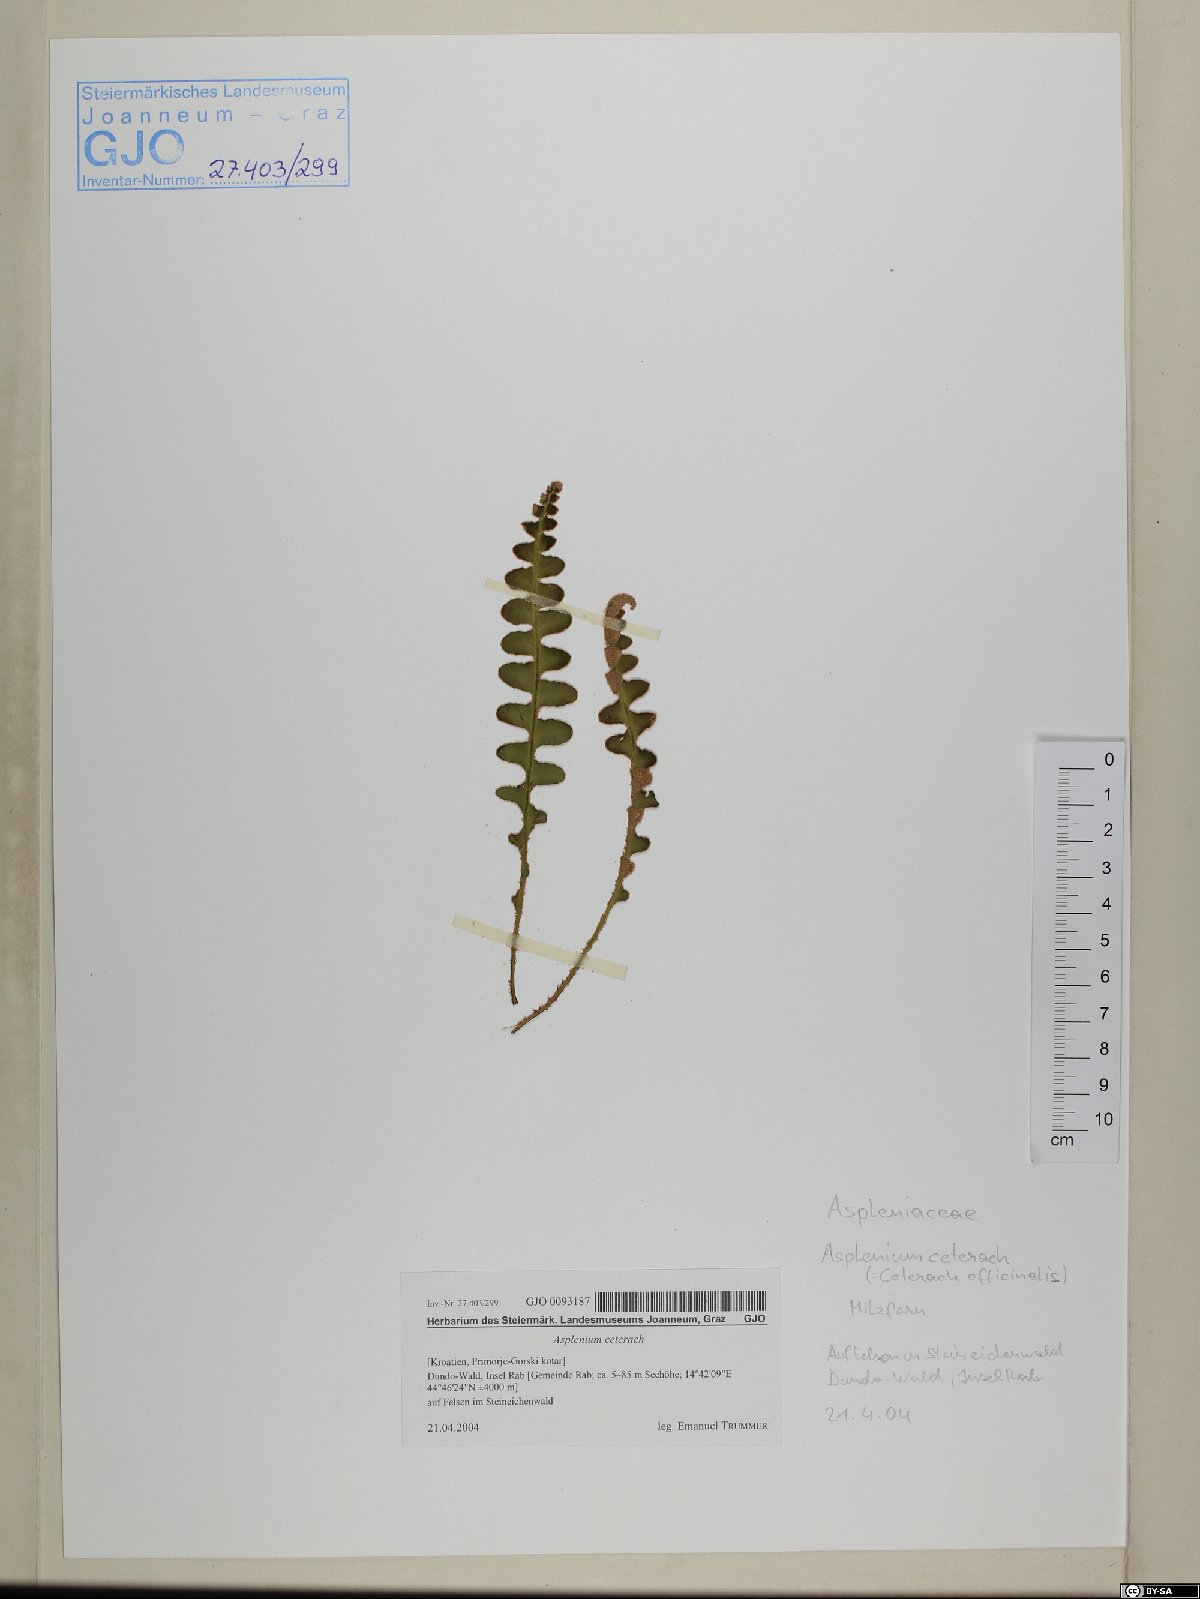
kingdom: Plantae
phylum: Tracheophyta
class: Polypodiopsida
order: Polypodiales
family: Aspleniaceae
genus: Asplenium
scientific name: Asplenium ceterach
